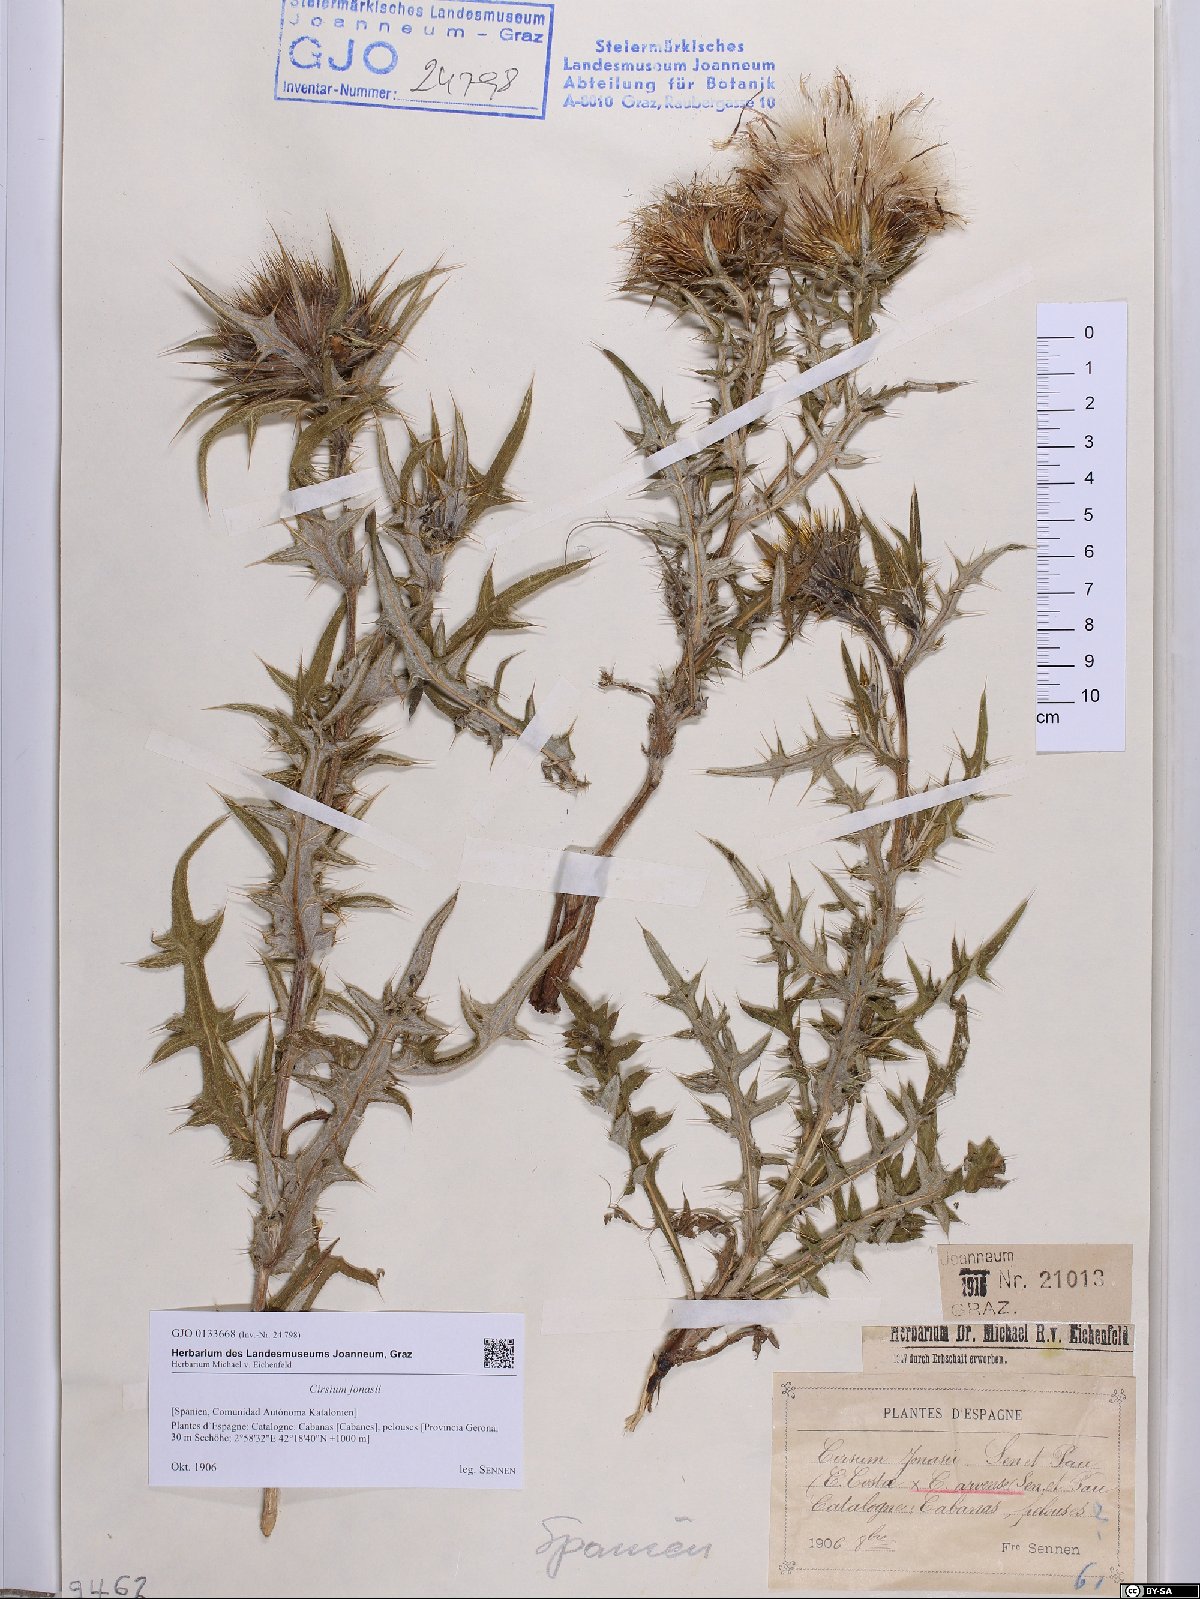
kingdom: Plantae
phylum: Tracheophyta
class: Magnoliopsida
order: Asterales
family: Asteraceae
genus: Lophiolepis
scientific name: Lophiolepis richteriana
